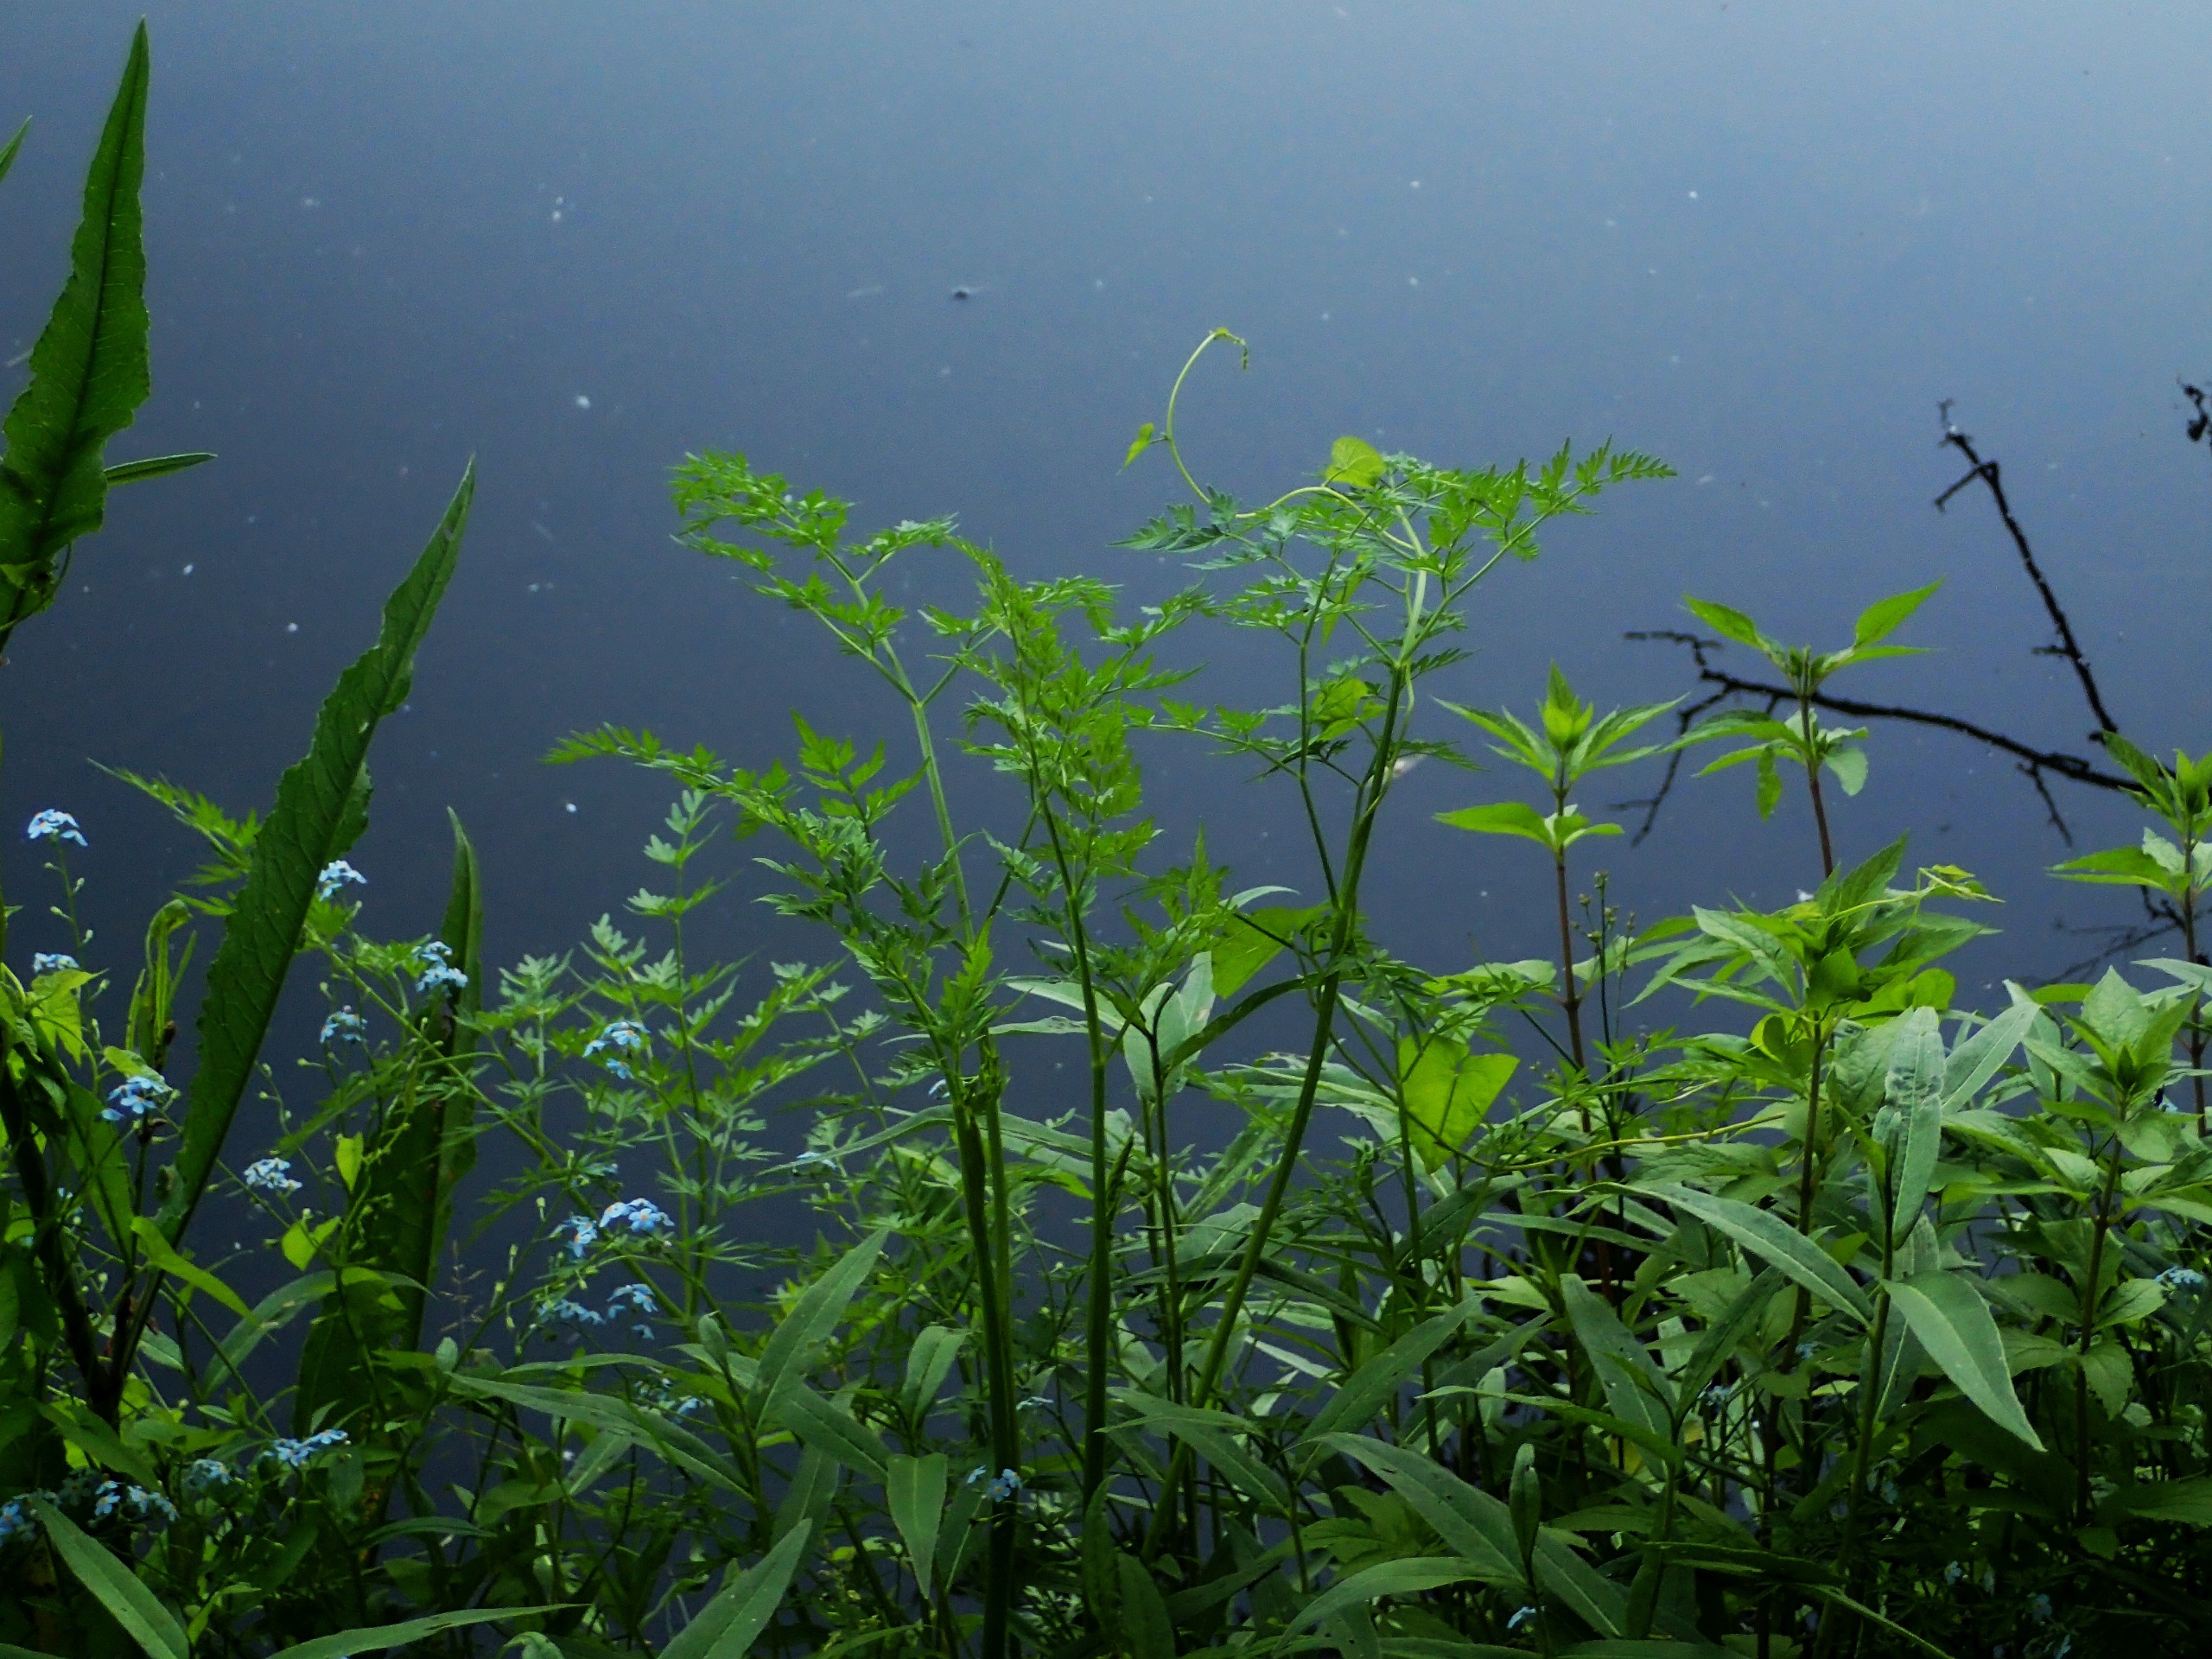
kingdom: Plantae
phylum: Tracheophyta
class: Magnoliopsida
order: Apiales
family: Apiaceae
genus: Thysselinum
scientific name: Thysselinum palustre
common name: Kær-svovlrod
